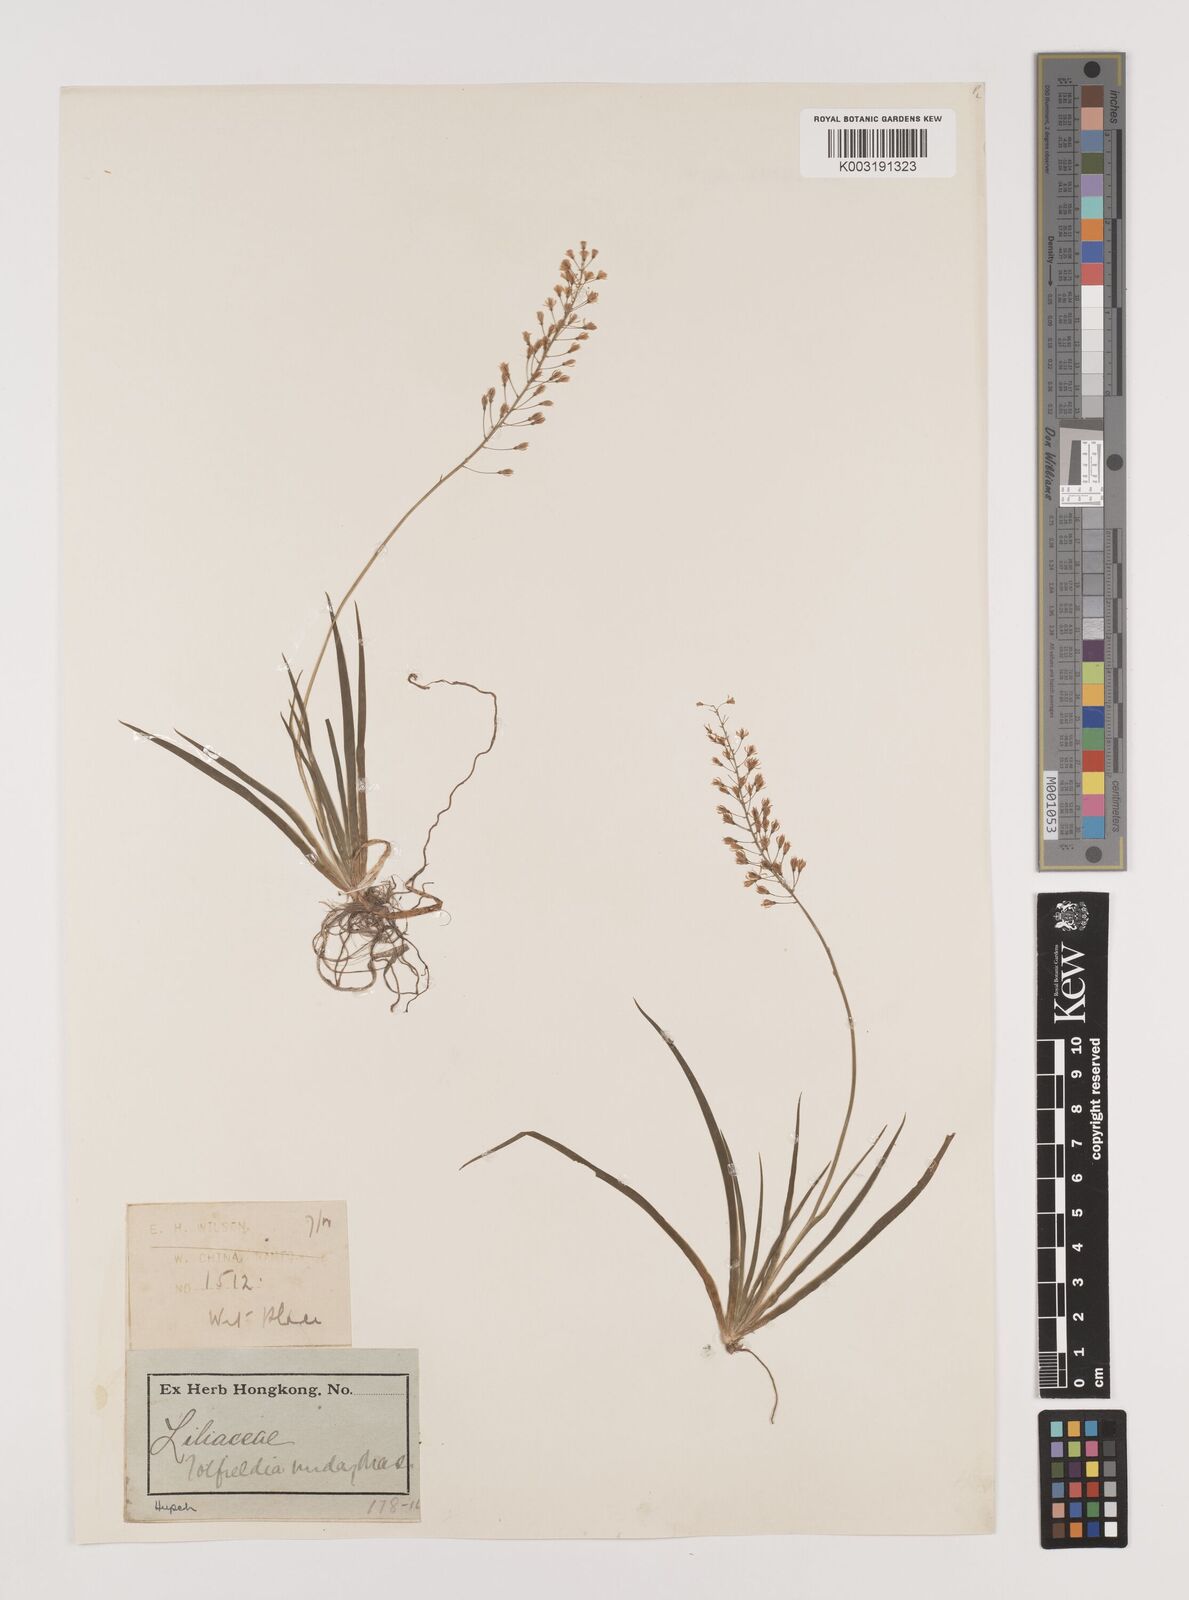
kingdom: Plantae
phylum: Tracheophyta
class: Liliopsida
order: Alismatales
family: Tofieldiaceae
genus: Tofieldia
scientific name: Tofieldia nuda
